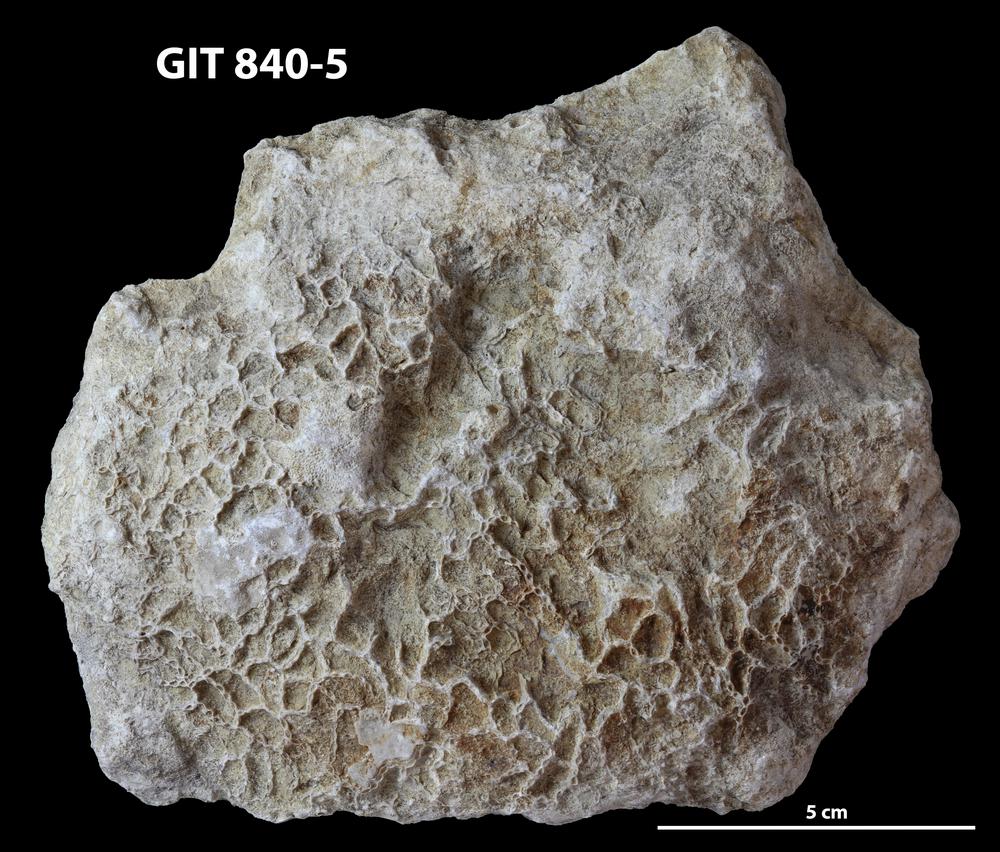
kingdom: Animalia
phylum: Cnidaria
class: Anthozoa
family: Cateniporidae
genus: Catenipora
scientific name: Catenipora
